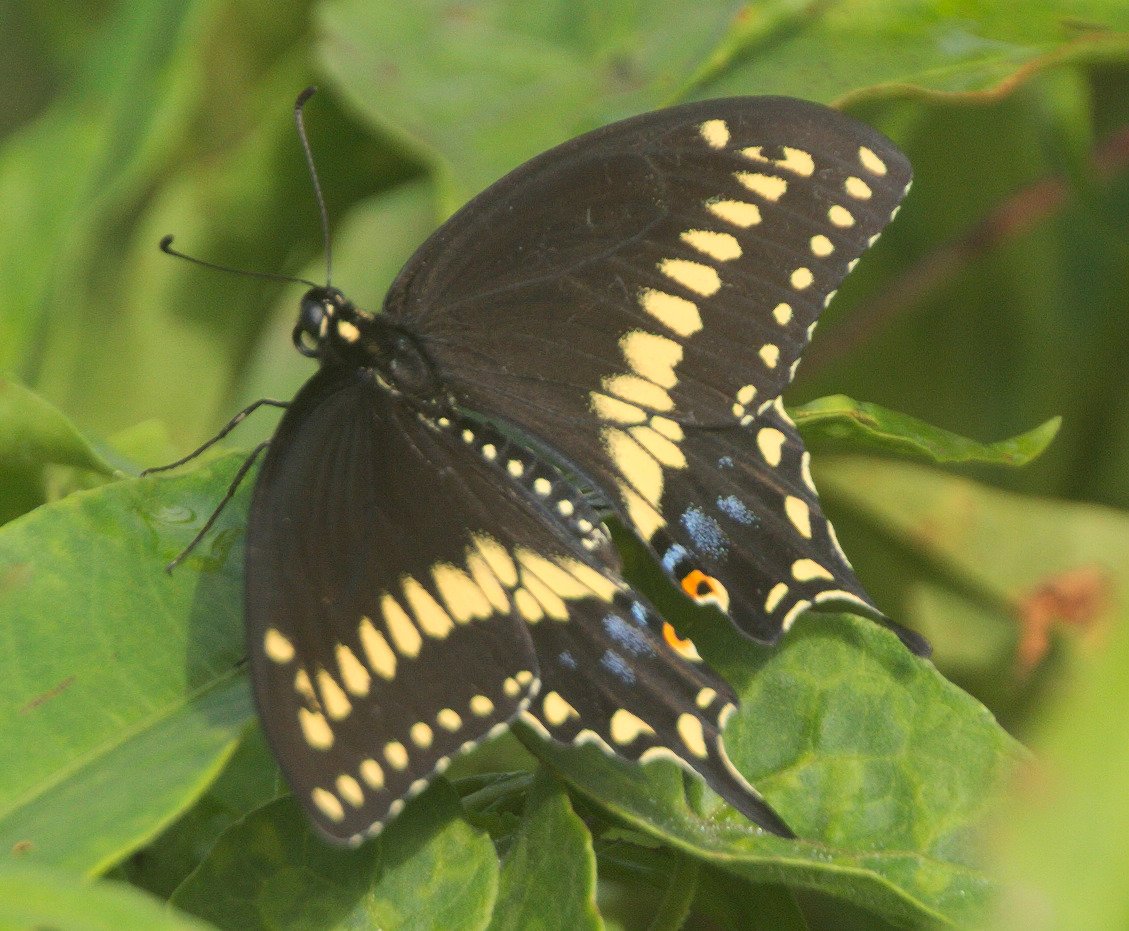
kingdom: Animalia
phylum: Arthropoda
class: Insecta
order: Lepidoptera
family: Papilionidae
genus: Papilio
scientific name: Papilio polyxenes
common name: Black Swallowtail
